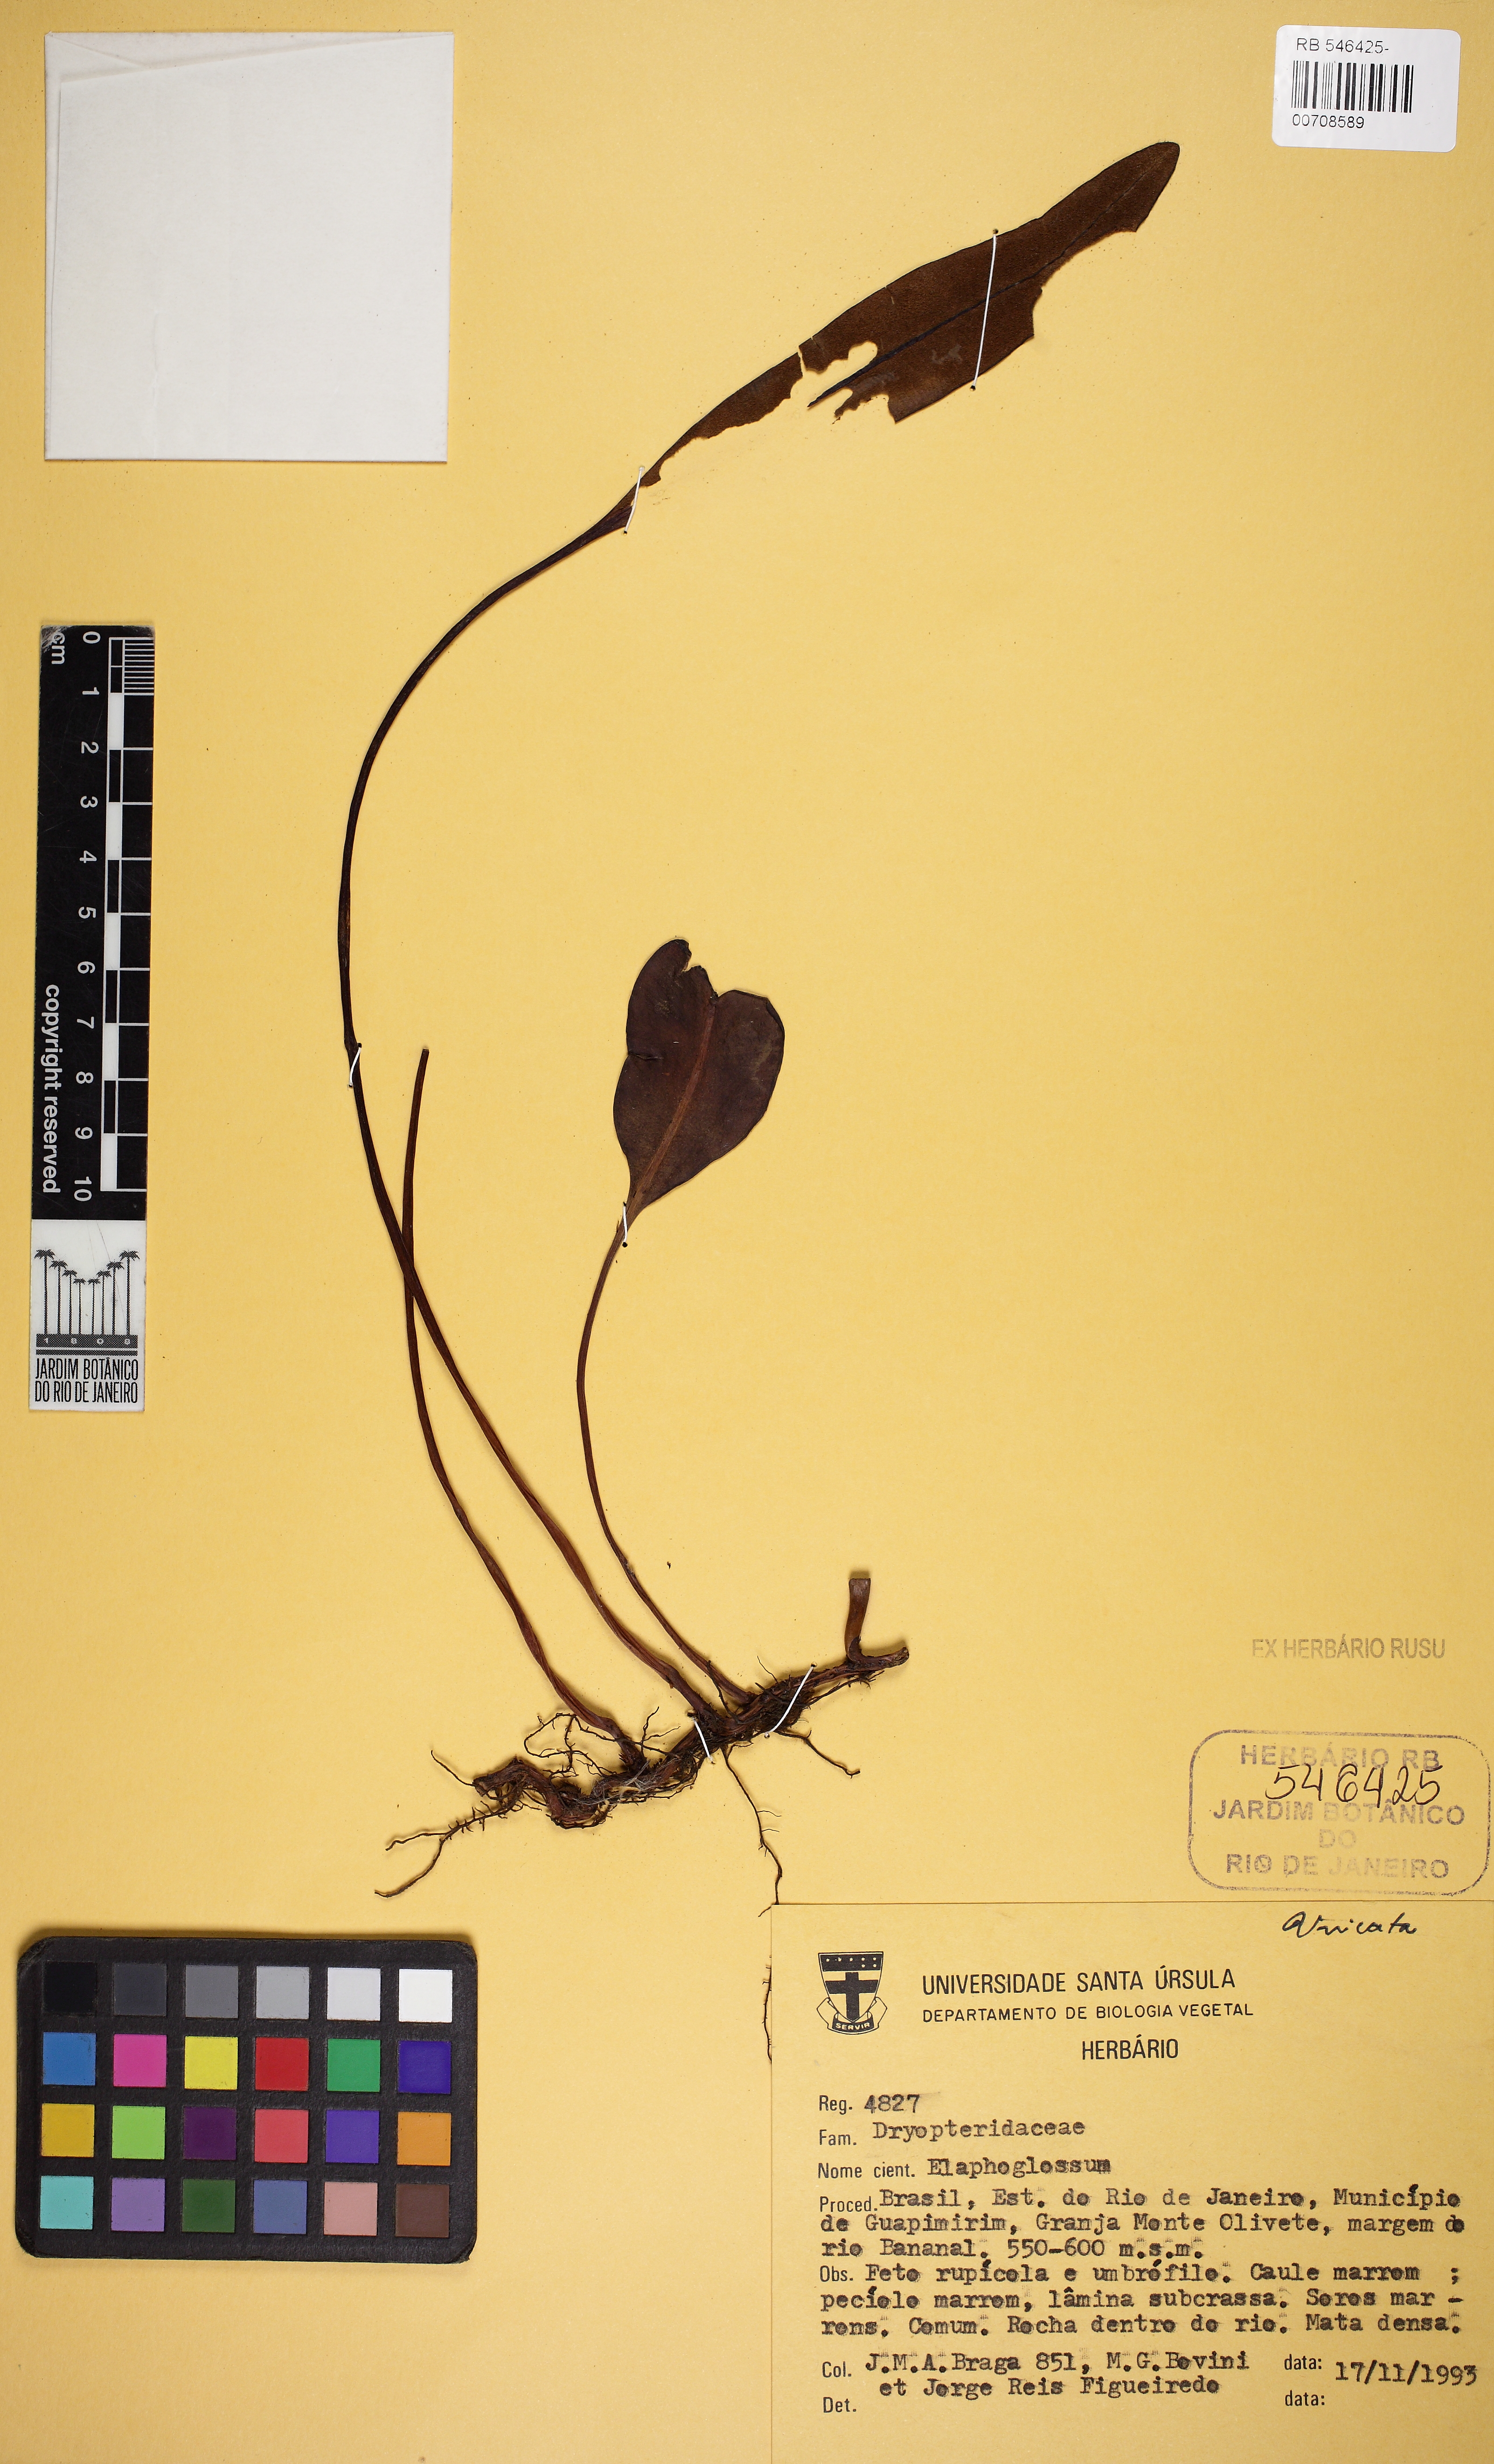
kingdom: Plantae
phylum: Tracheophyta
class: Polypodiopsida
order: Polypodiales
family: Dryopteridaceae
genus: Elaphoglossum
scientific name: Elaphoglossum
